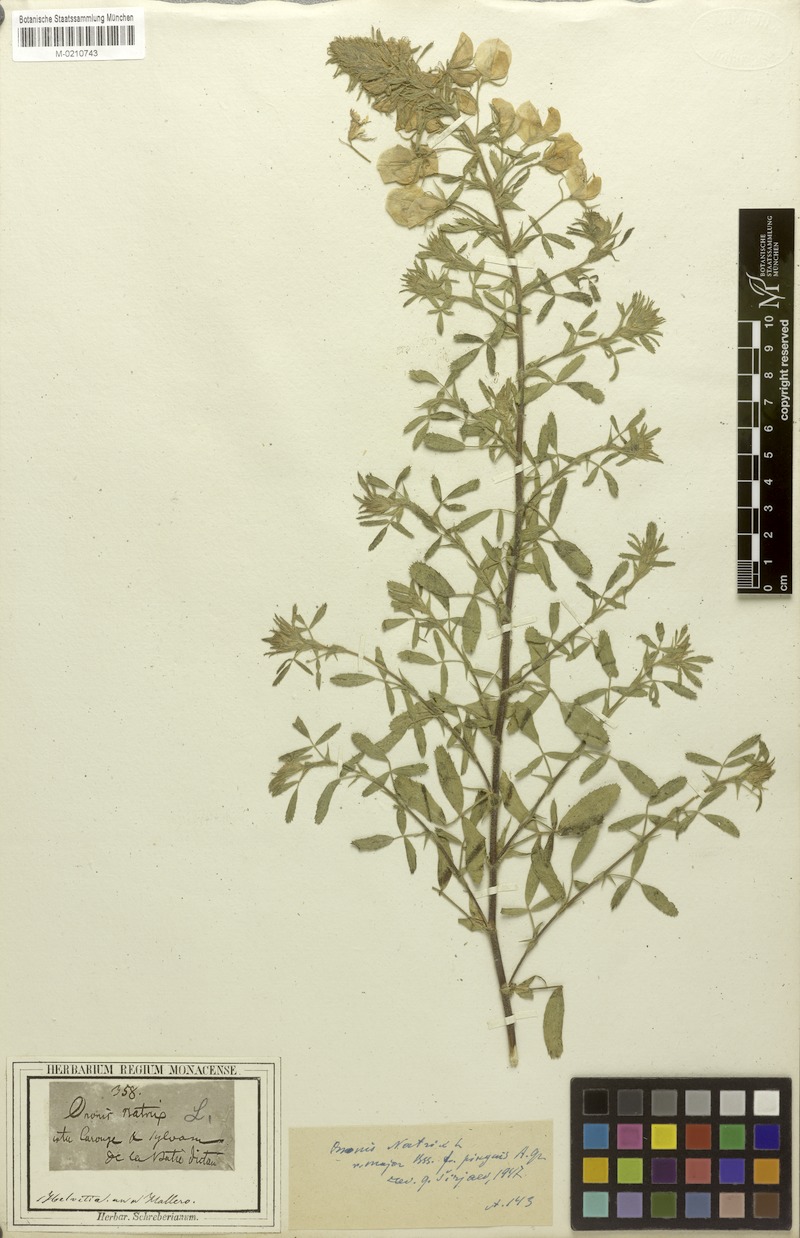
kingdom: Plantae
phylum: Tracheophyta
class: Magnoliopsida
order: Fabales
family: Fabaceae
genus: Ononis
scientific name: Ononis natrix
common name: Yellow restharrow
